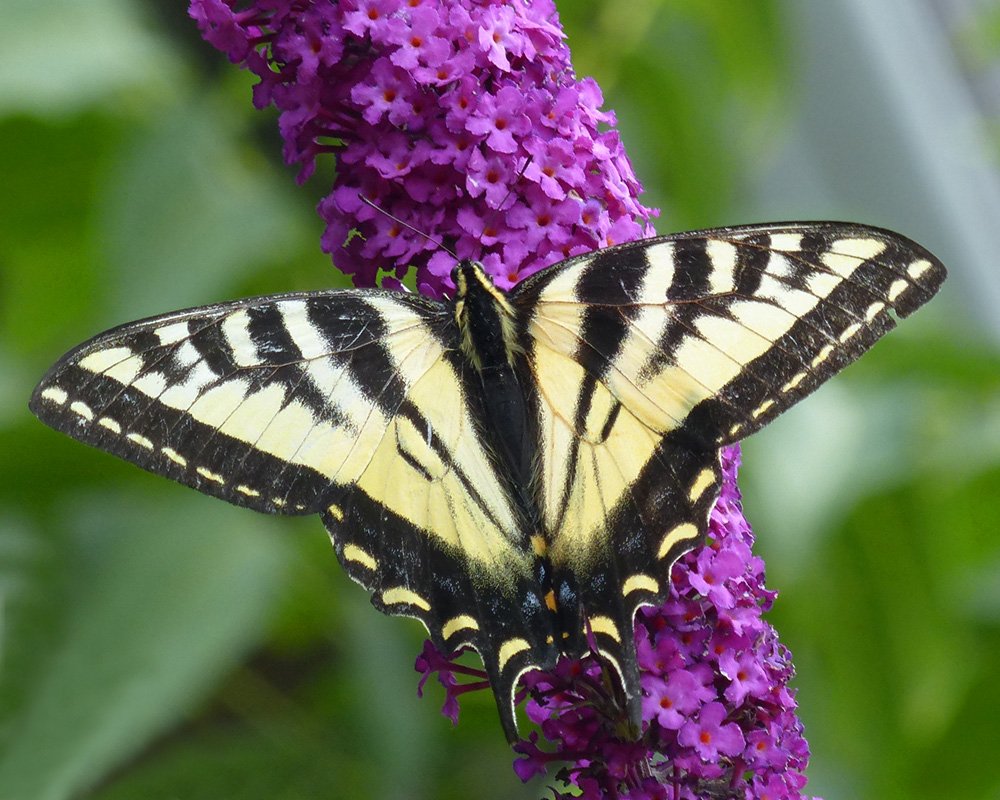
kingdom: Animalia
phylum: Arthropoda
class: Insecta
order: Lepidoptera
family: Papilionidae
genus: Pterourus
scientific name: Pterourus rutulus
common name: Western Tiger Swallowtail
